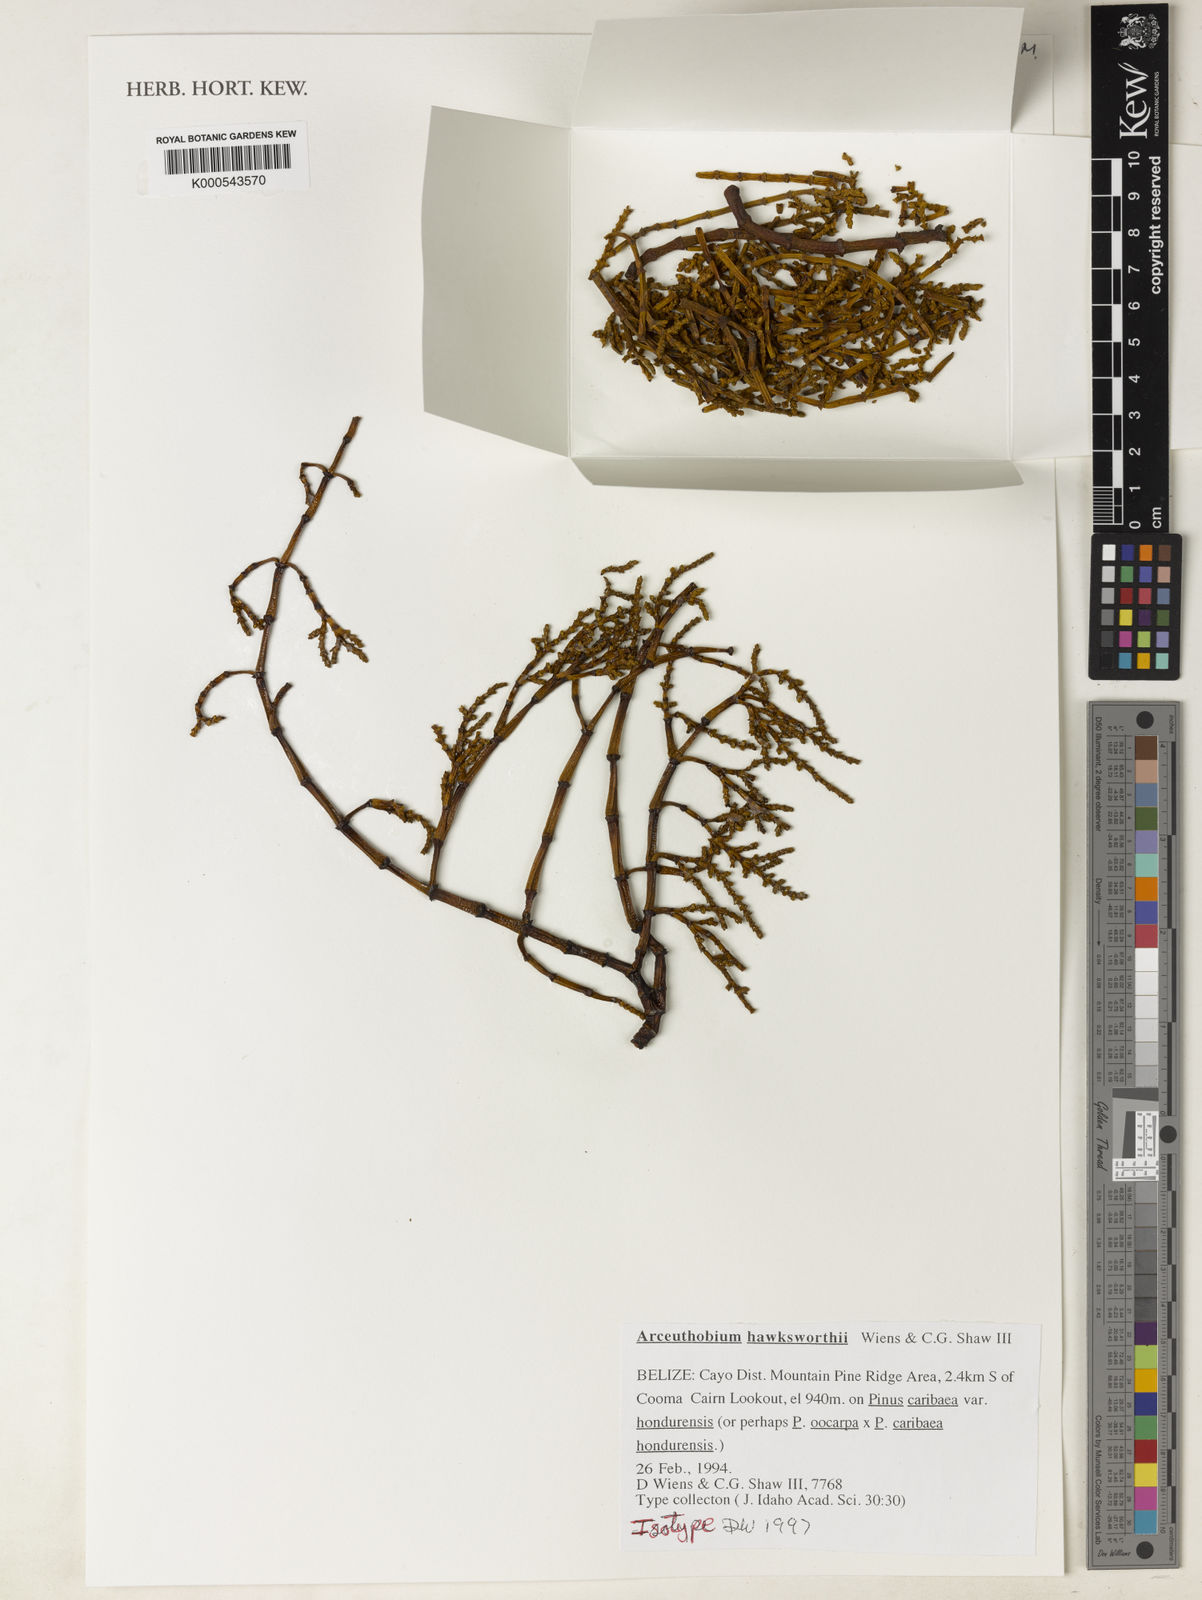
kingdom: Plantae
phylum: Tracheophyta
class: Magnoliopsida
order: Santalales
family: Viscaceae
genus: Arceuthobium
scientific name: Arceuthobium hondurense
